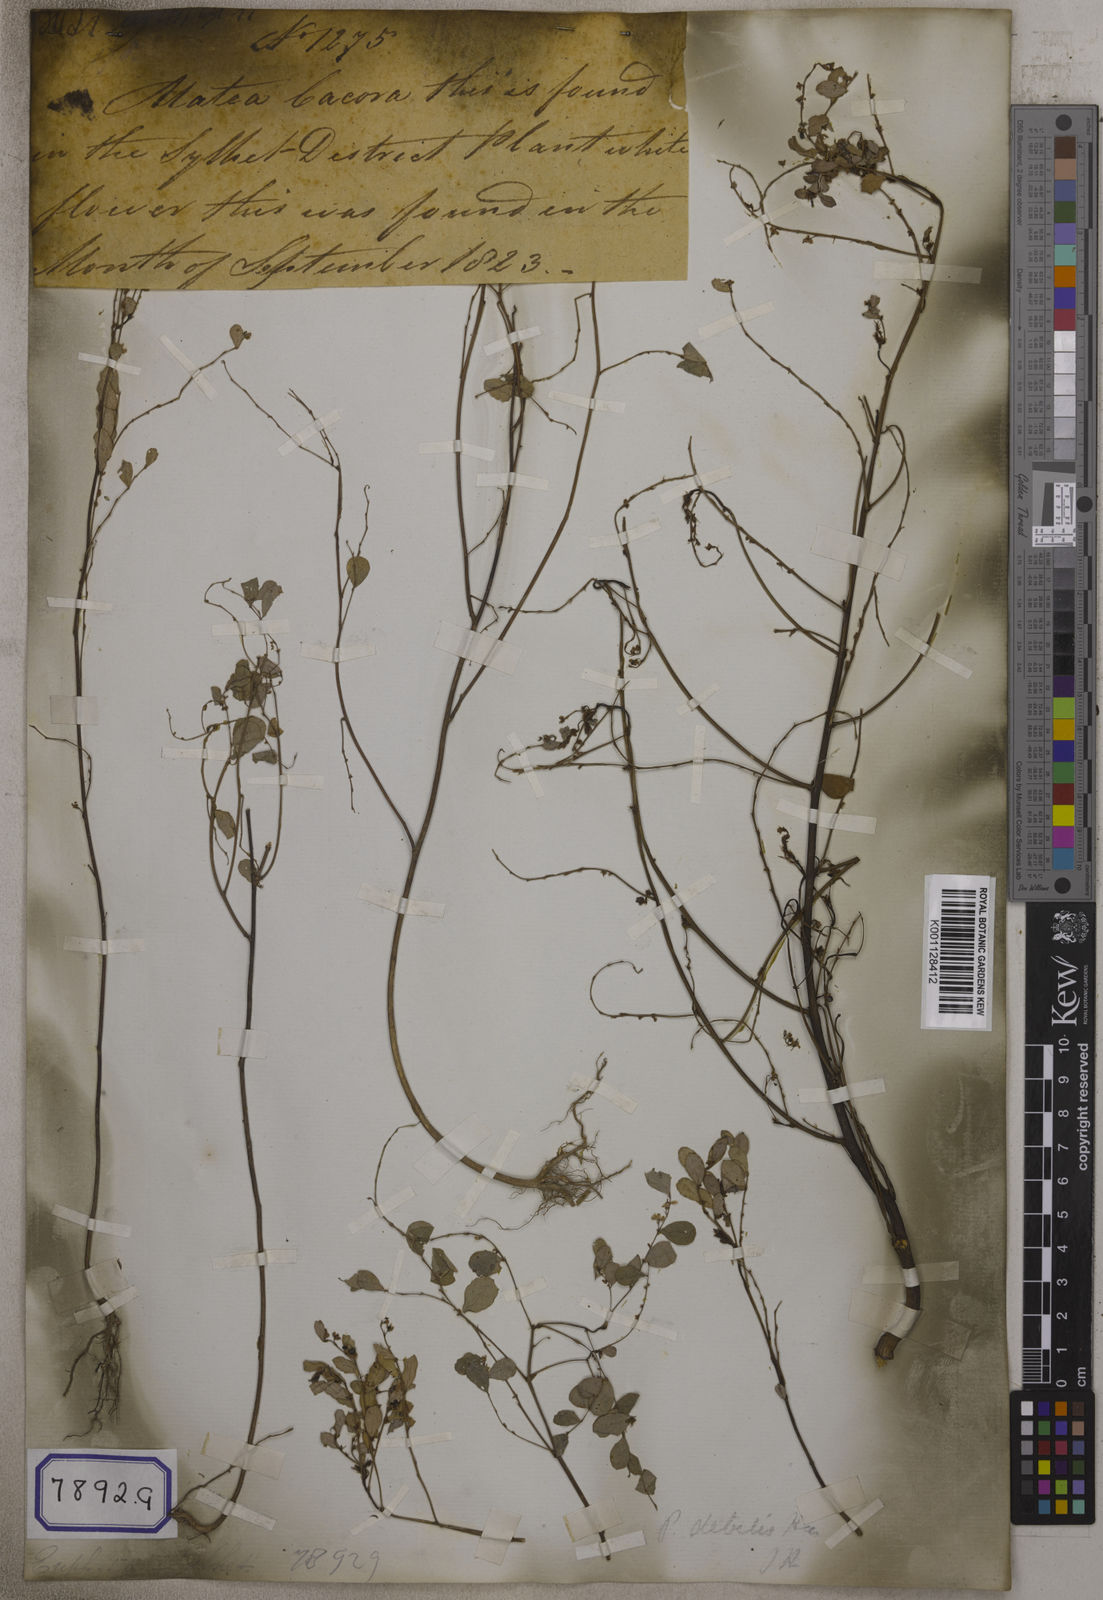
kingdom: Plantae
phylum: Tracheophyta
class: Magnoliopsida
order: Malpighiales
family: Euphorbiaceae
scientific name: Euphorbiaceae
